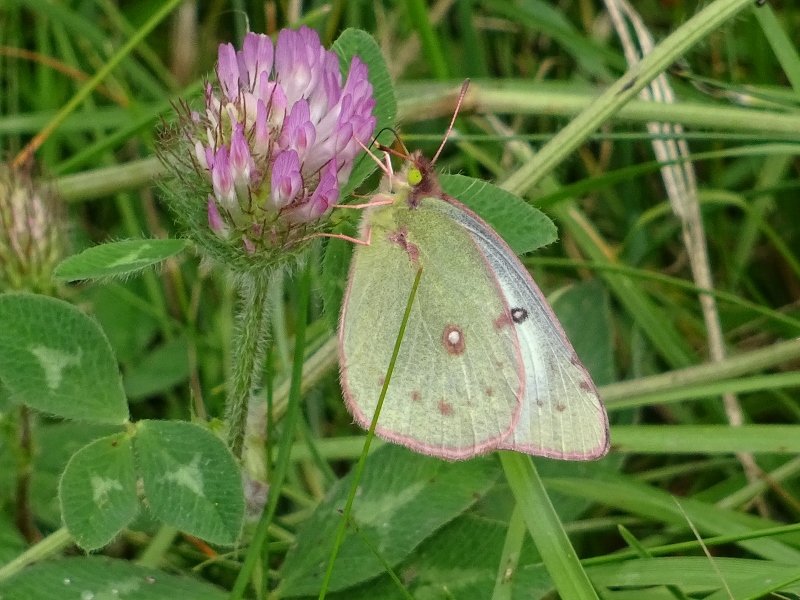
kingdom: Animalia
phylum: Arthropoda
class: Insecta
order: Lepidoptera
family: Pieridae
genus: Colias
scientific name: Colias philodice
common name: Clouded Sulphur
